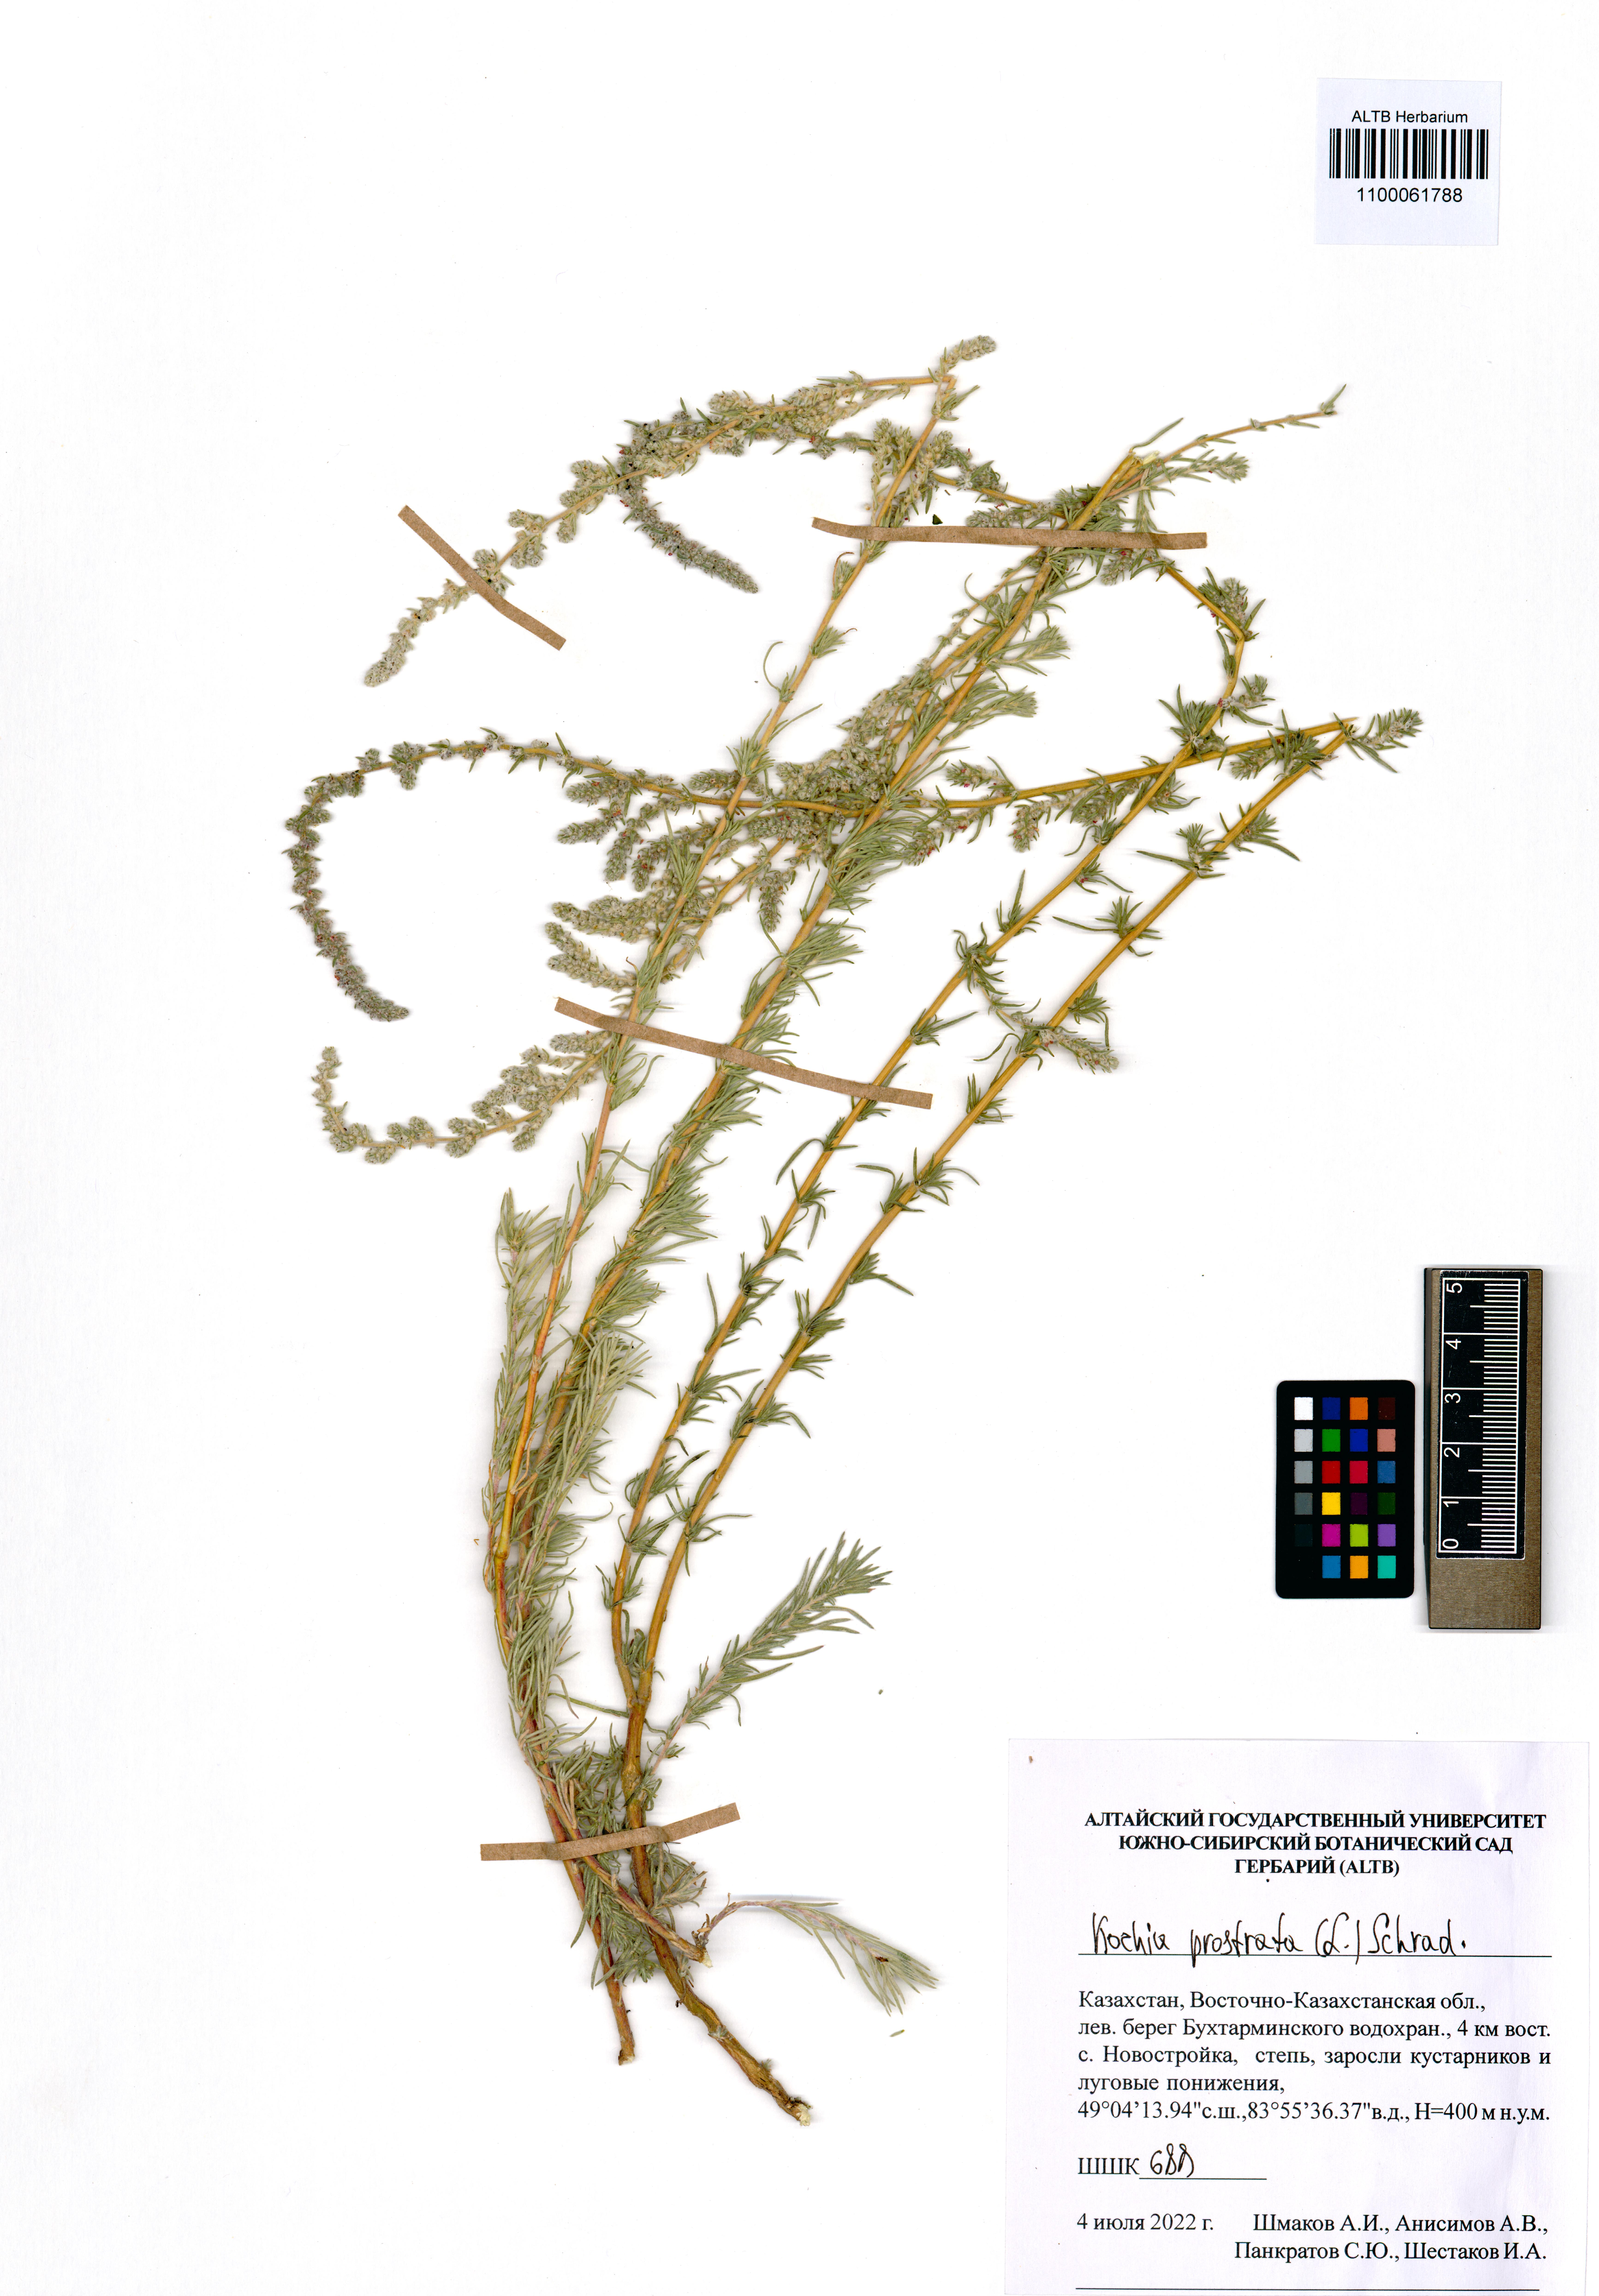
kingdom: Plantae
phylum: Tracheophyta
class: Magnoliopsida
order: Caryophyllales
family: Amaranthaceae
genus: Bassia
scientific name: Bassia prostrata
